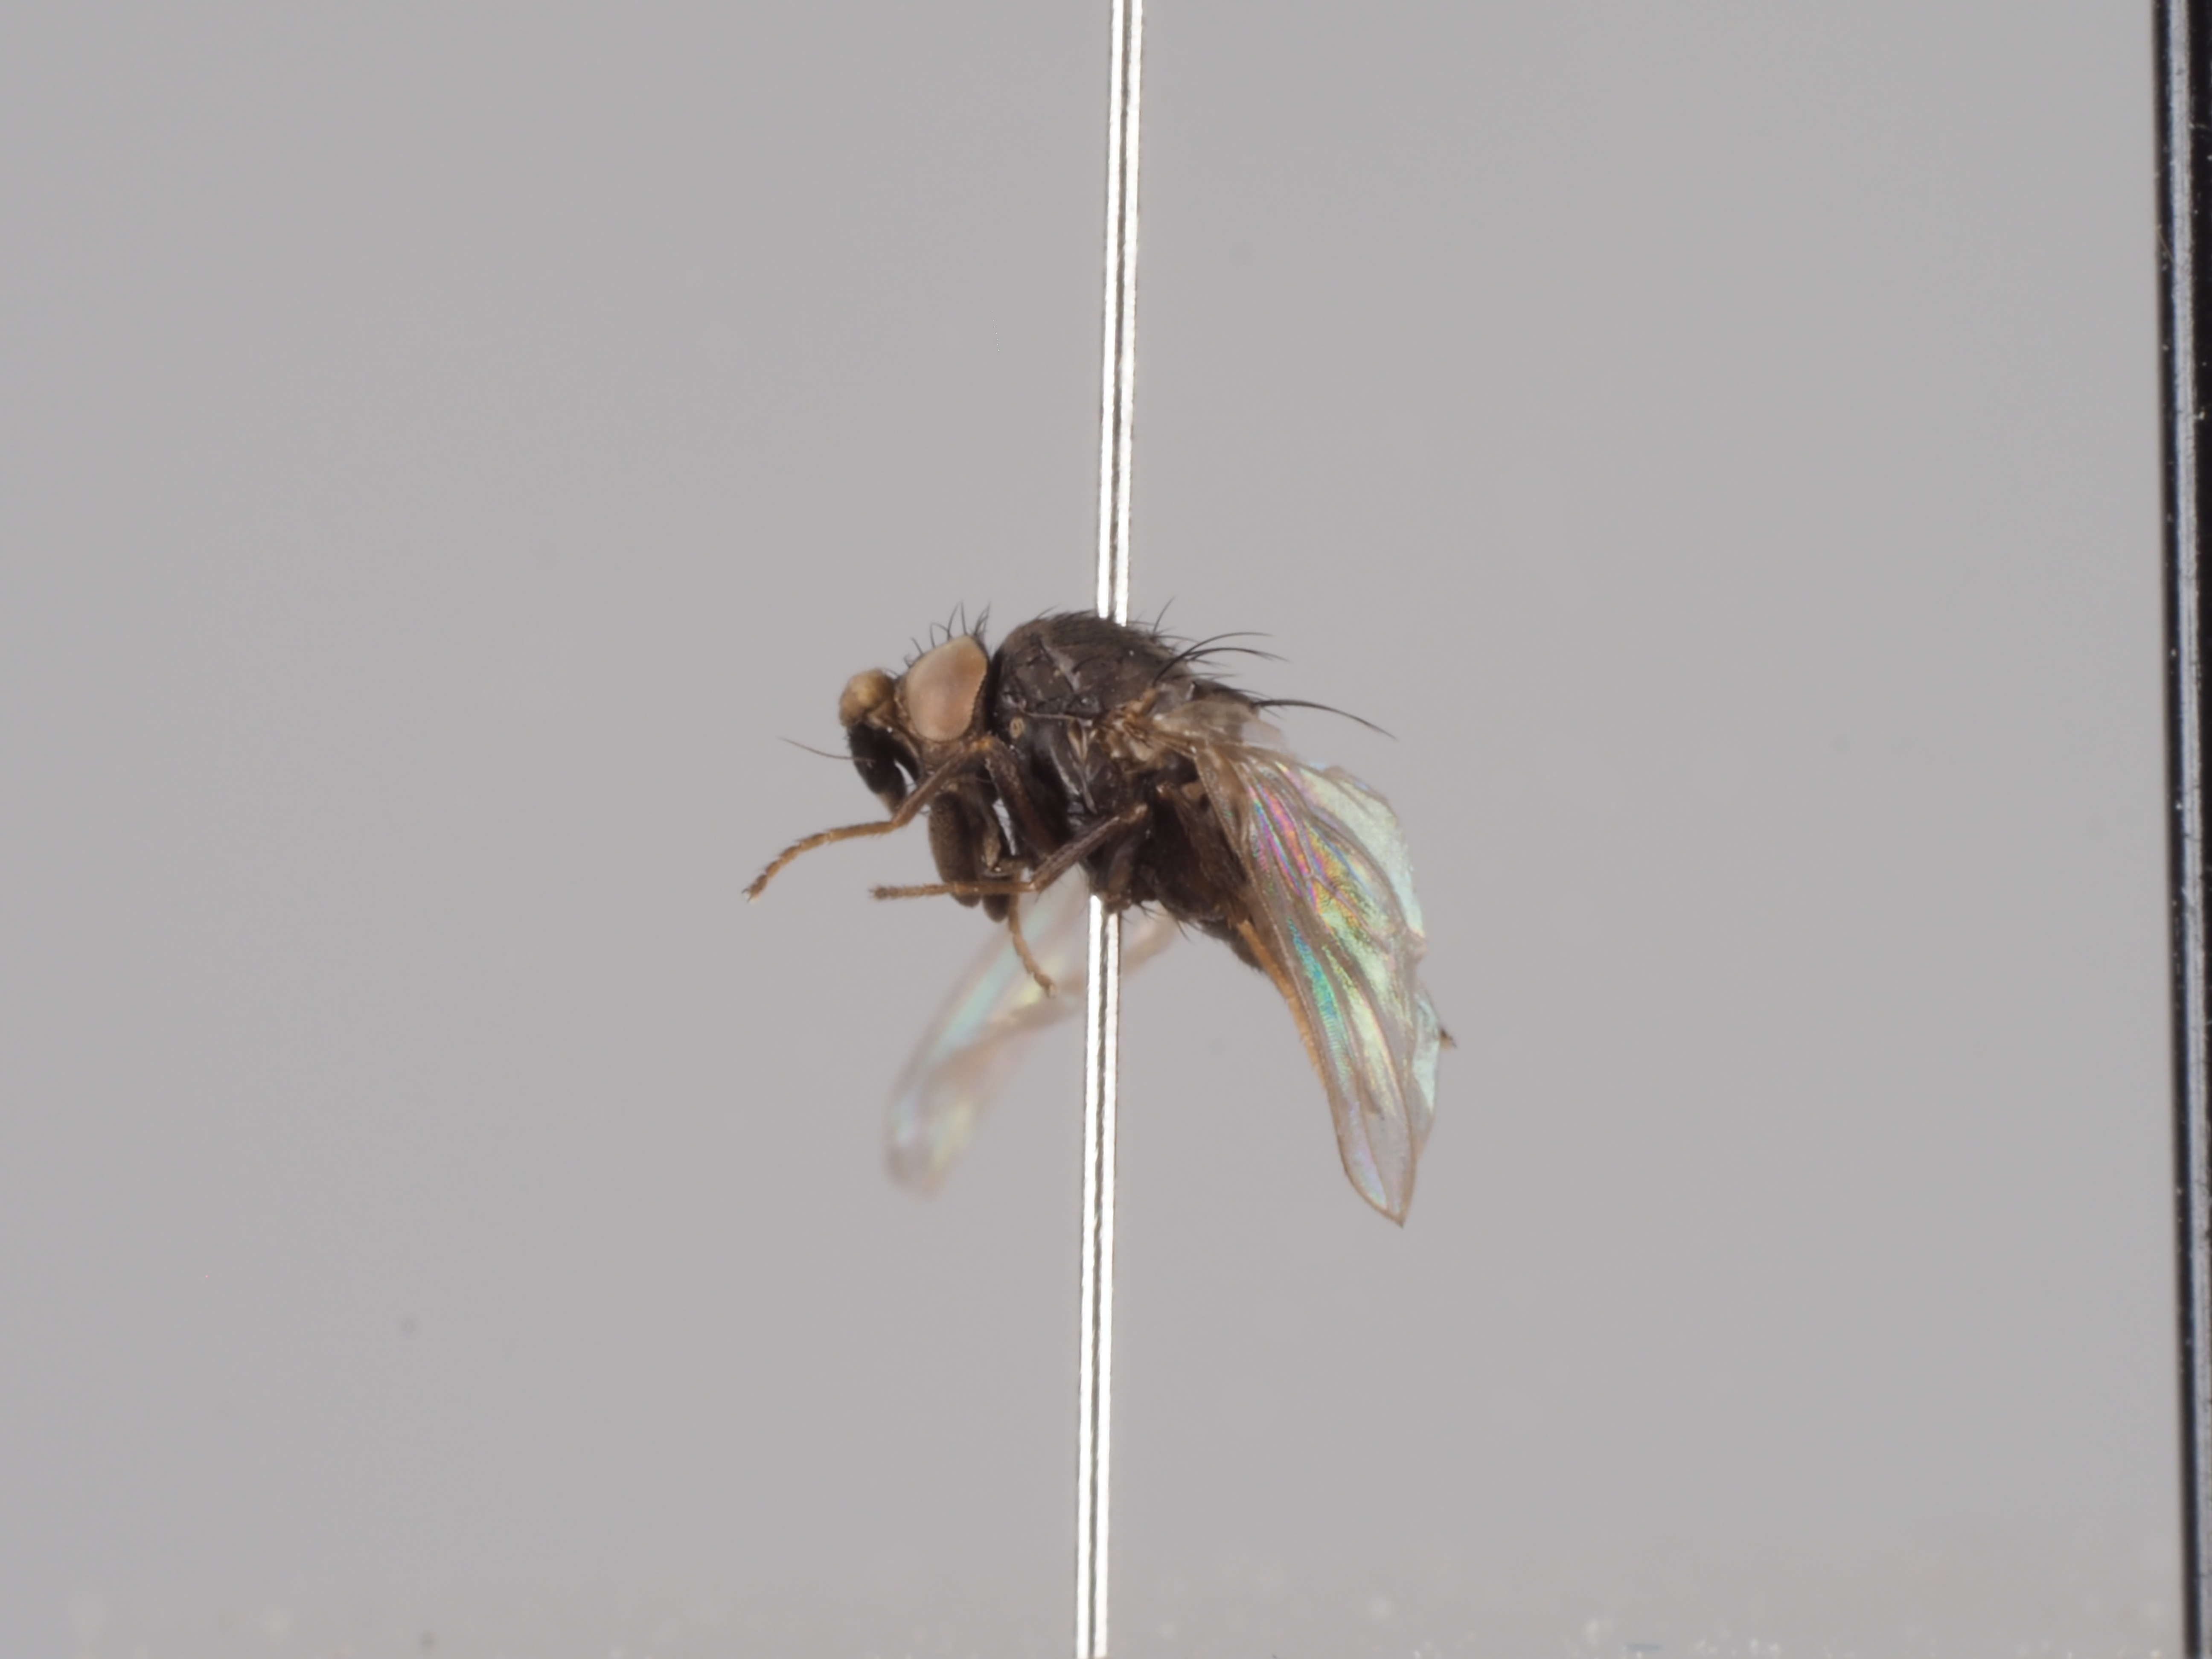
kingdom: Animalia
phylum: Arthropoda
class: Insecta
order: Diptera
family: Milichiidae
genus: Phyllomyza
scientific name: Phyllomyza formicae
